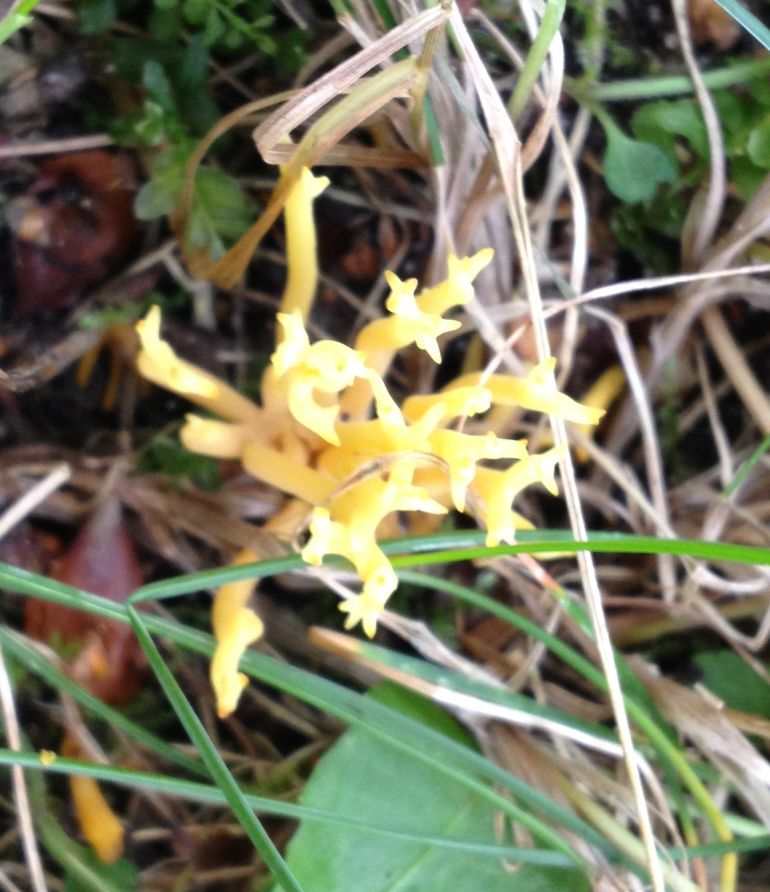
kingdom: Fungi
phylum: Basidiomycota
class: Agaricomycetes
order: Agaricales
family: Clavariaceae
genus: Clavulinopsis
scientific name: Clavulinopsis corniculata
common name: eng-køllesvamp
